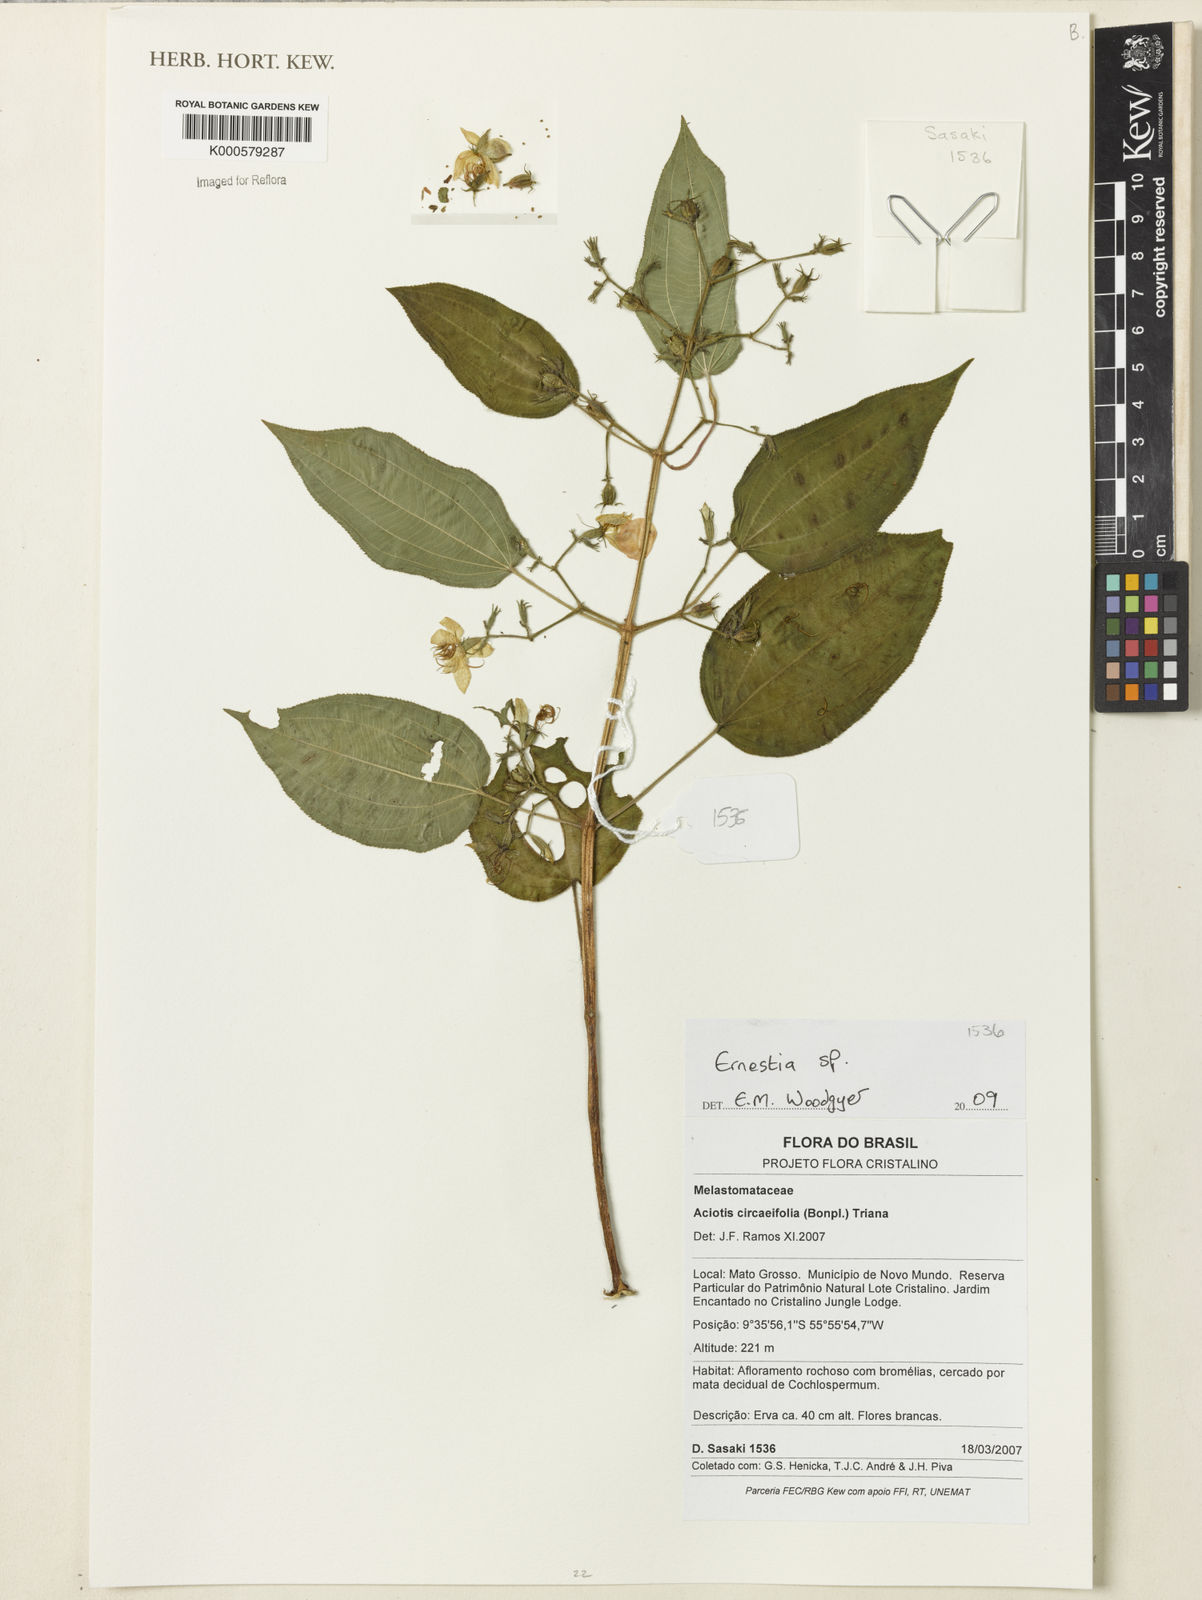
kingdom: Plantae
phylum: Tracheophyta
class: Magnoliopsida
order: Myrtales
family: Melastomataceae
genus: Ernestia
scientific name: Ernestia
